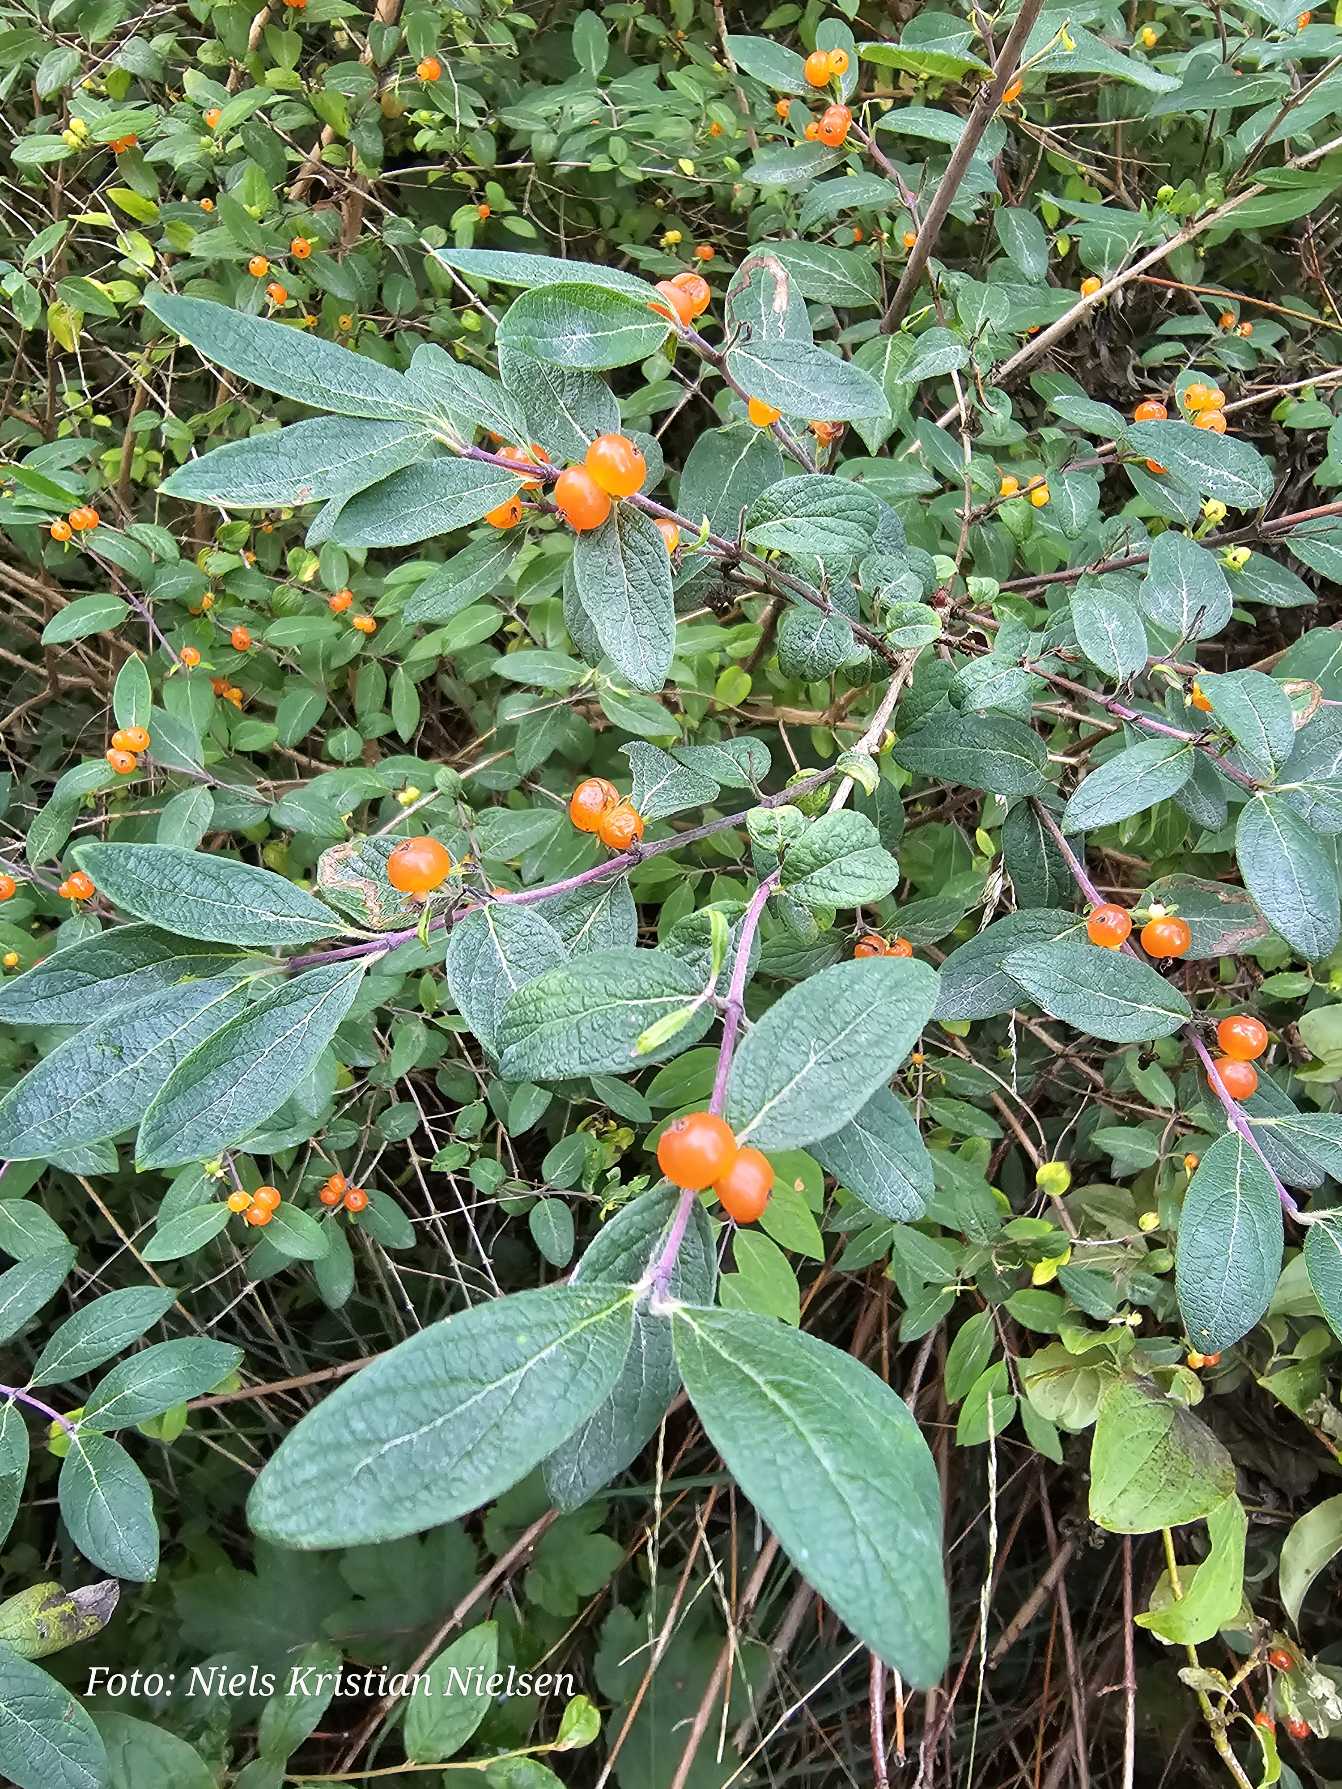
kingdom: Plantae
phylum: Tracheophyta
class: Magnoliopsida
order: Dipsacales
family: Caprifoliaceae
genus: Lonicera
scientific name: Lonicera tatarica
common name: Tatarisk gedeblad
